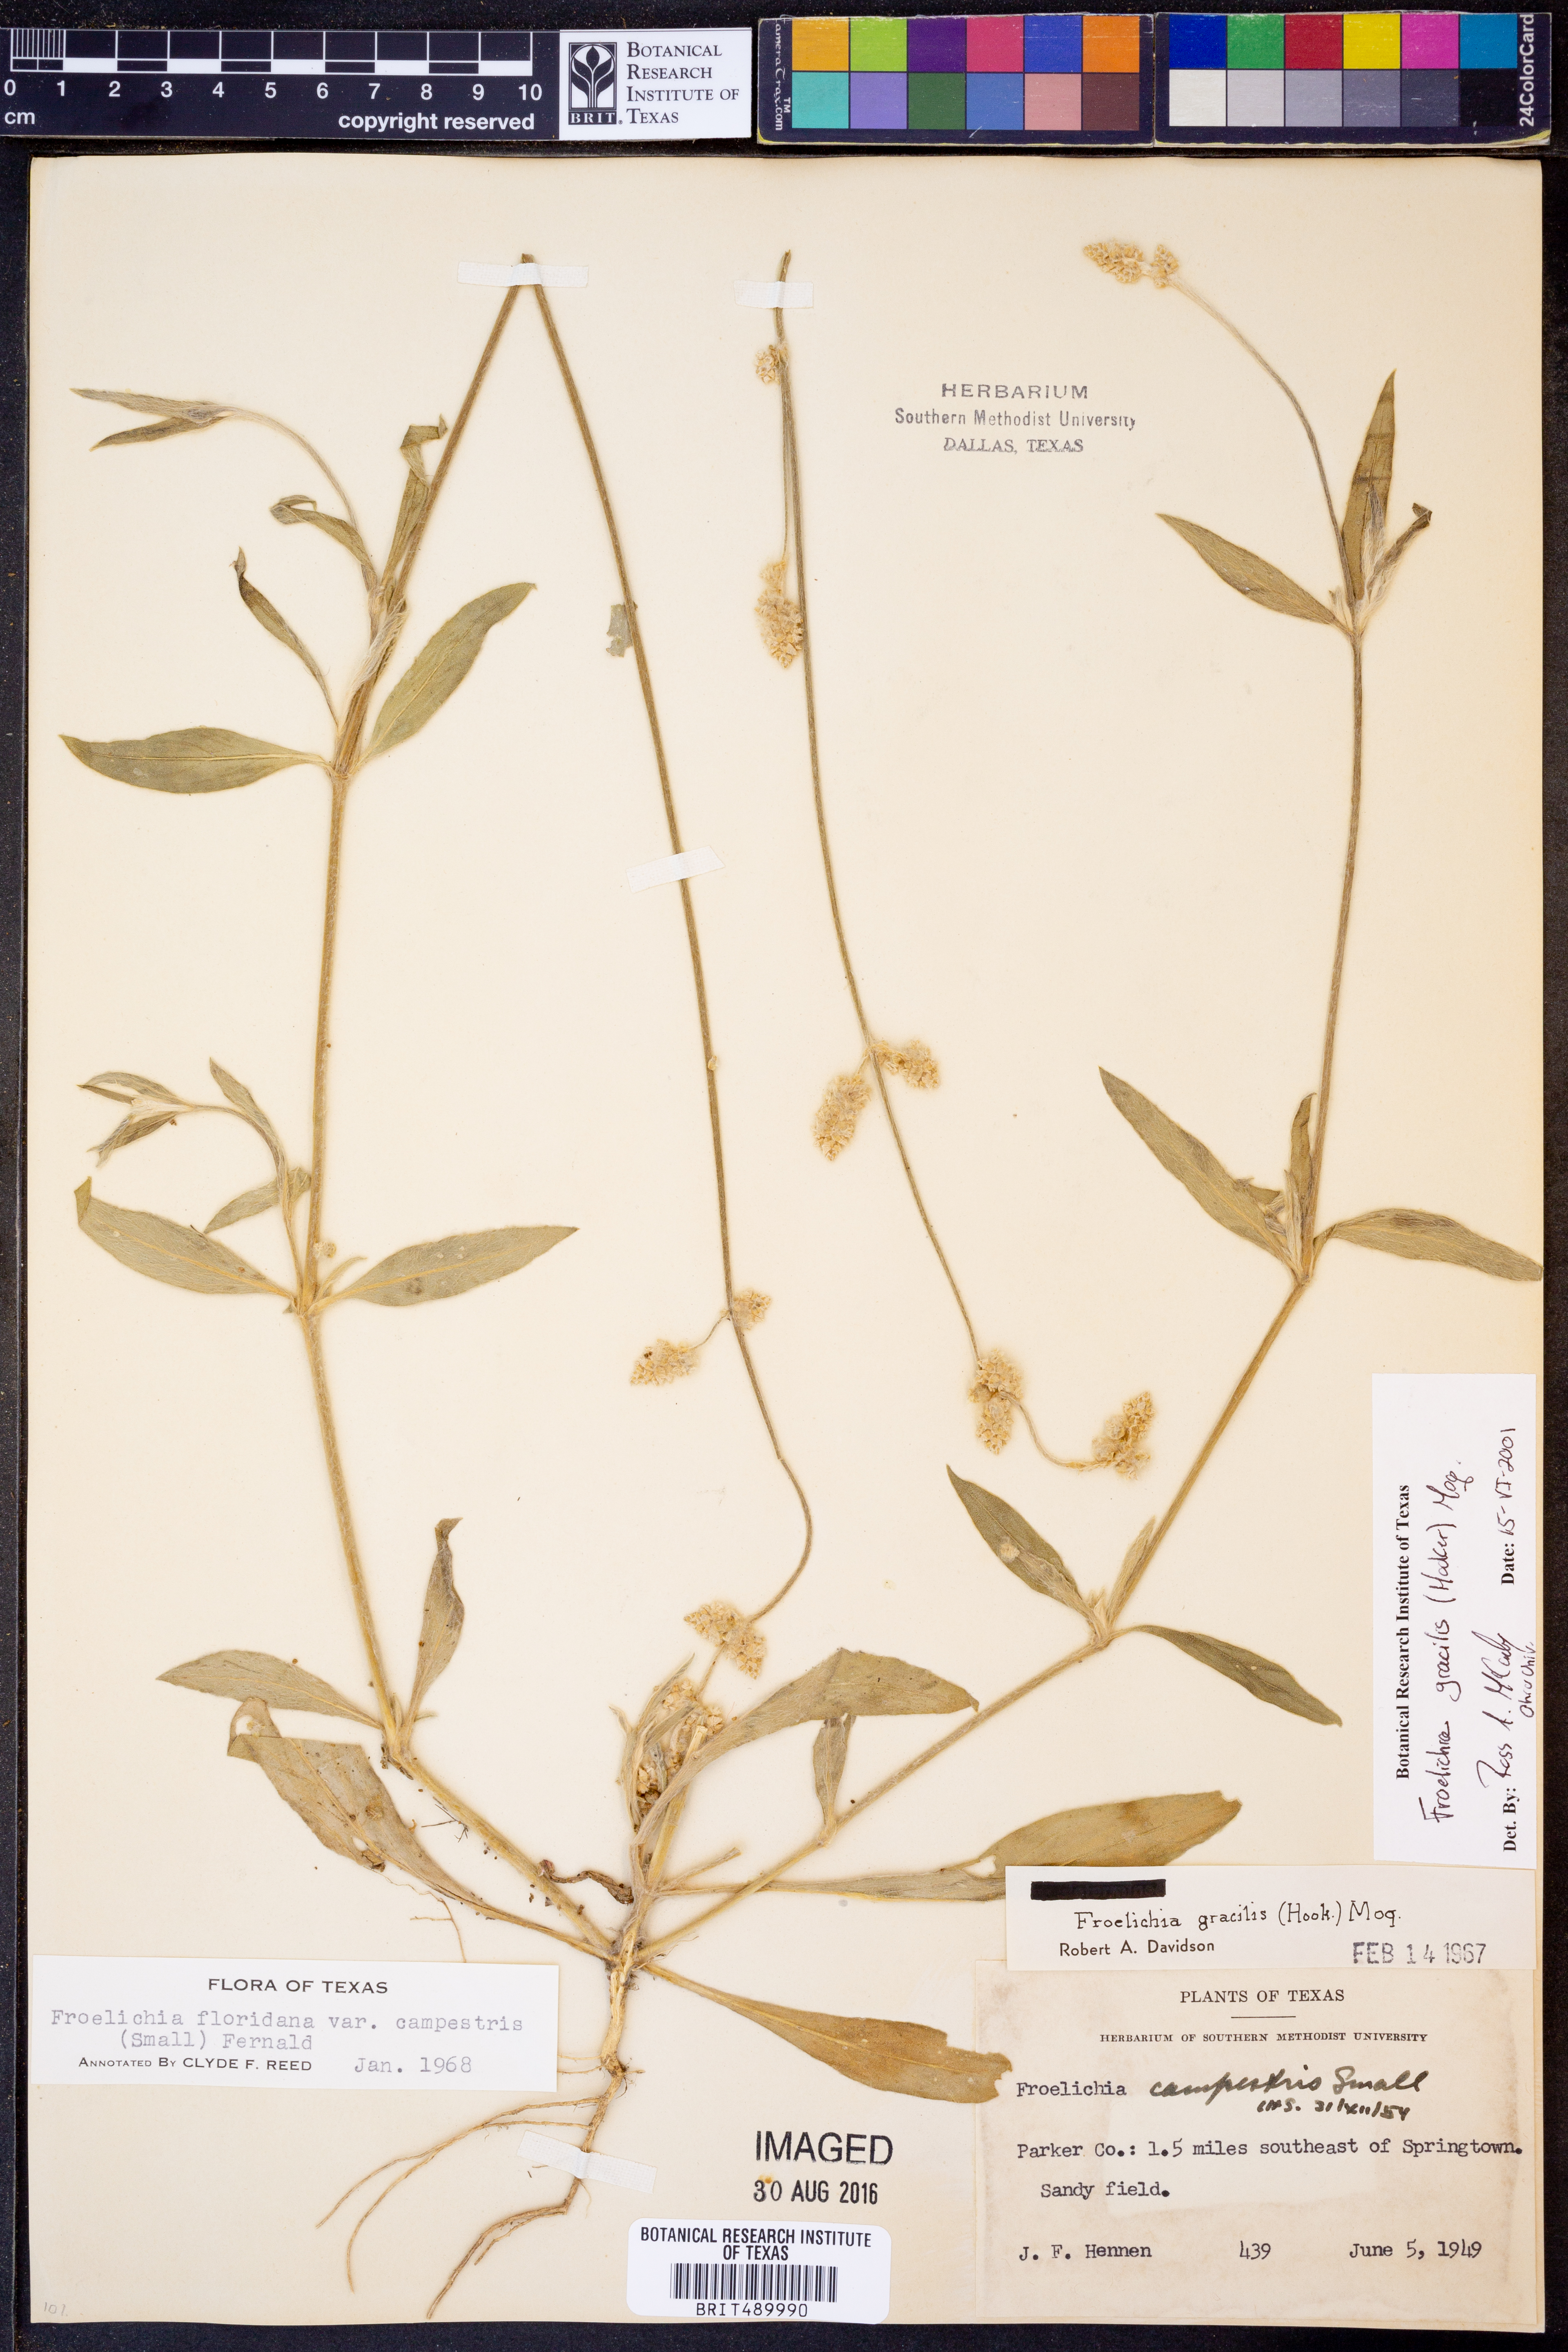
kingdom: Plantae
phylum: Tracheophyta
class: Magnoliopsida
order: Caryophyllales
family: Amaranthaceae
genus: Froelichia
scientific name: Froelichia gracilis
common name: Slender cottonweed
